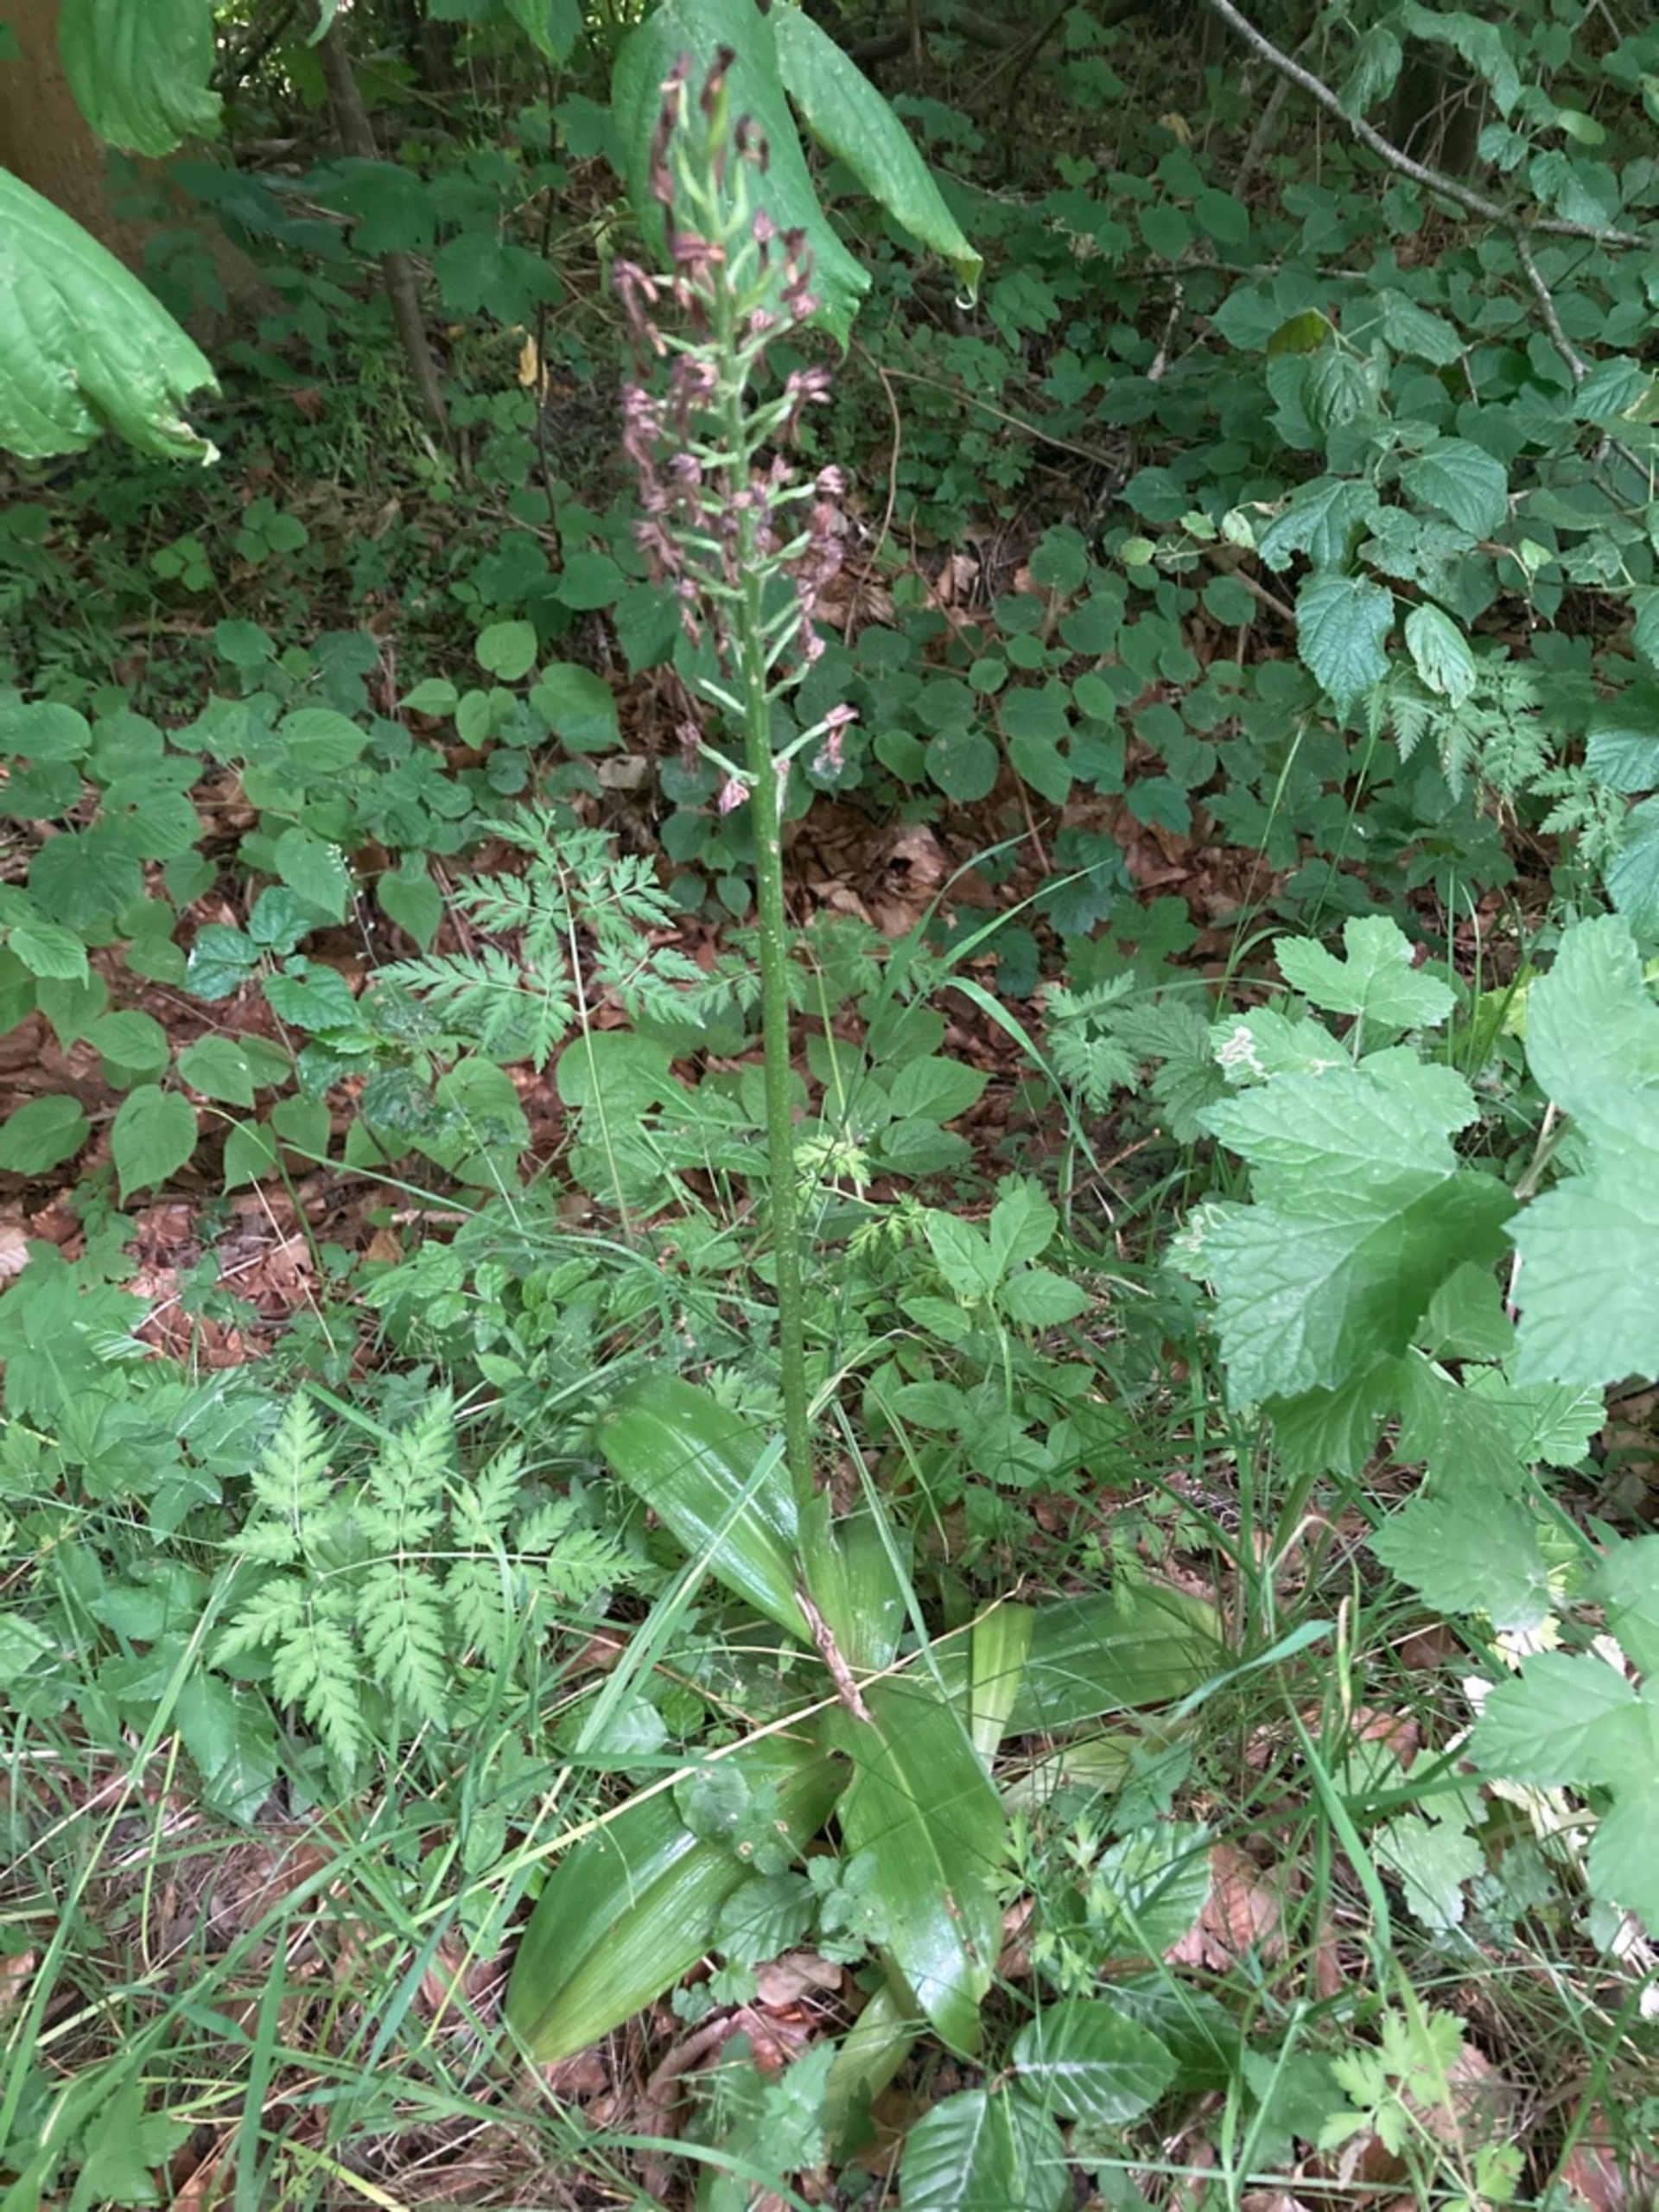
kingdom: Plantae
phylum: Tracheophyta
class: Liliopsida
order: Asparagales
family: Orchidaceae
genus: Orchis
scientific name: Orchis purpurea
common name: Stor gøgeurt
